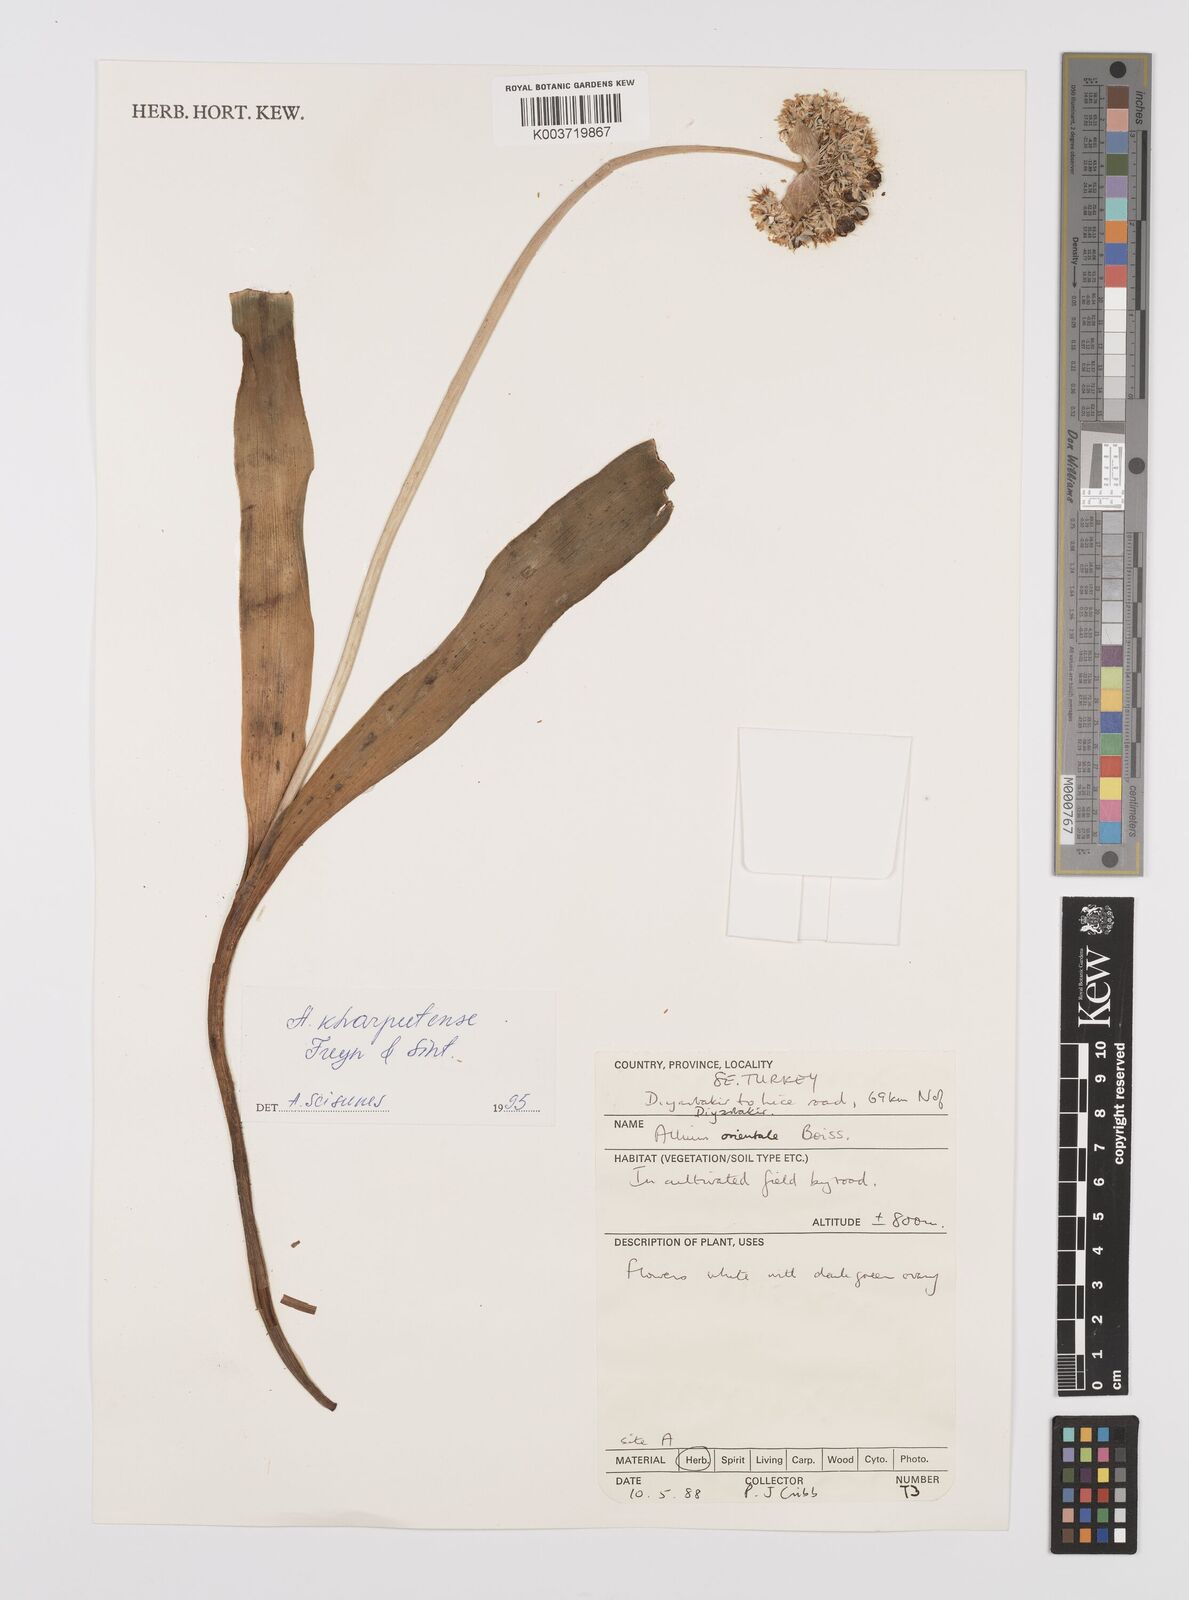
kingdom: Plantae
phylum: Tracheophyta
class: Liliopsida
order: Asparagales
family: Amaryllidaceae
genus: Allium
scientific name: Allium orientale
